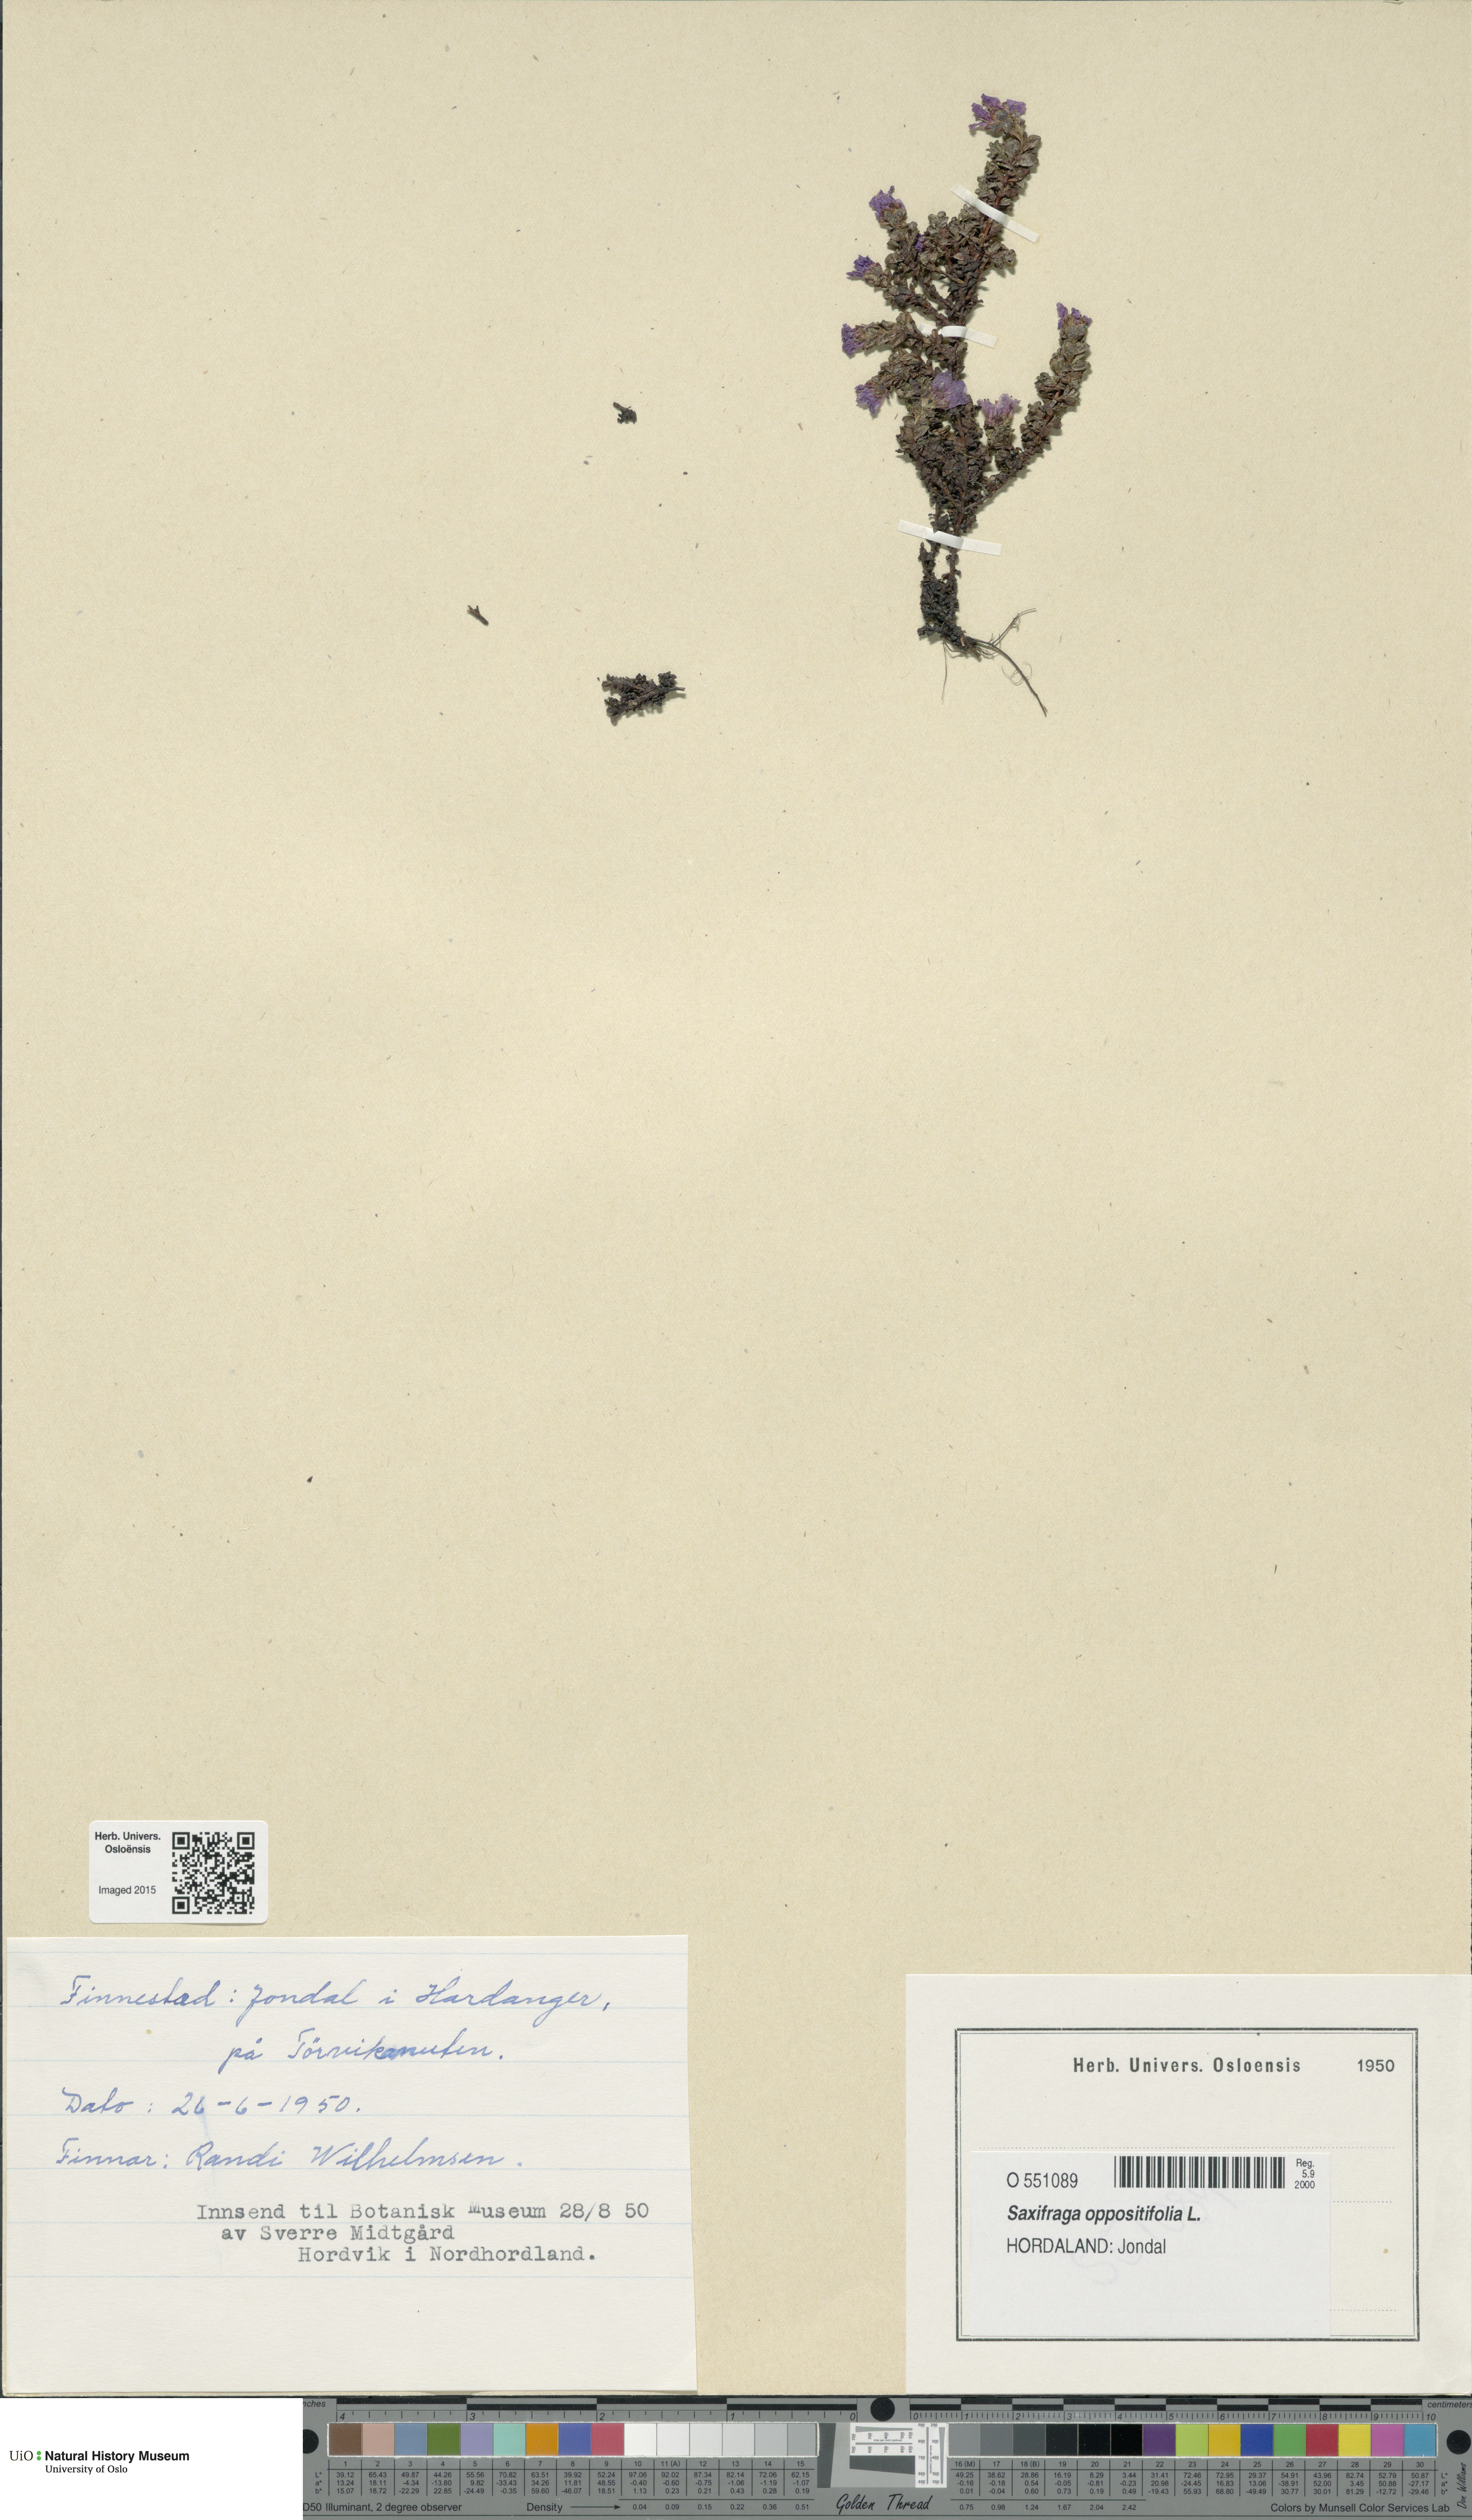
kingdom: Plantae
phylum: Tracheophyta
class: Magnoliopsida
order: Saxifragales
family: Saxifragaceae
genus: Saxifraga
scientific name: Saxifraga oppositifolia
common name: Purple saxifrage
